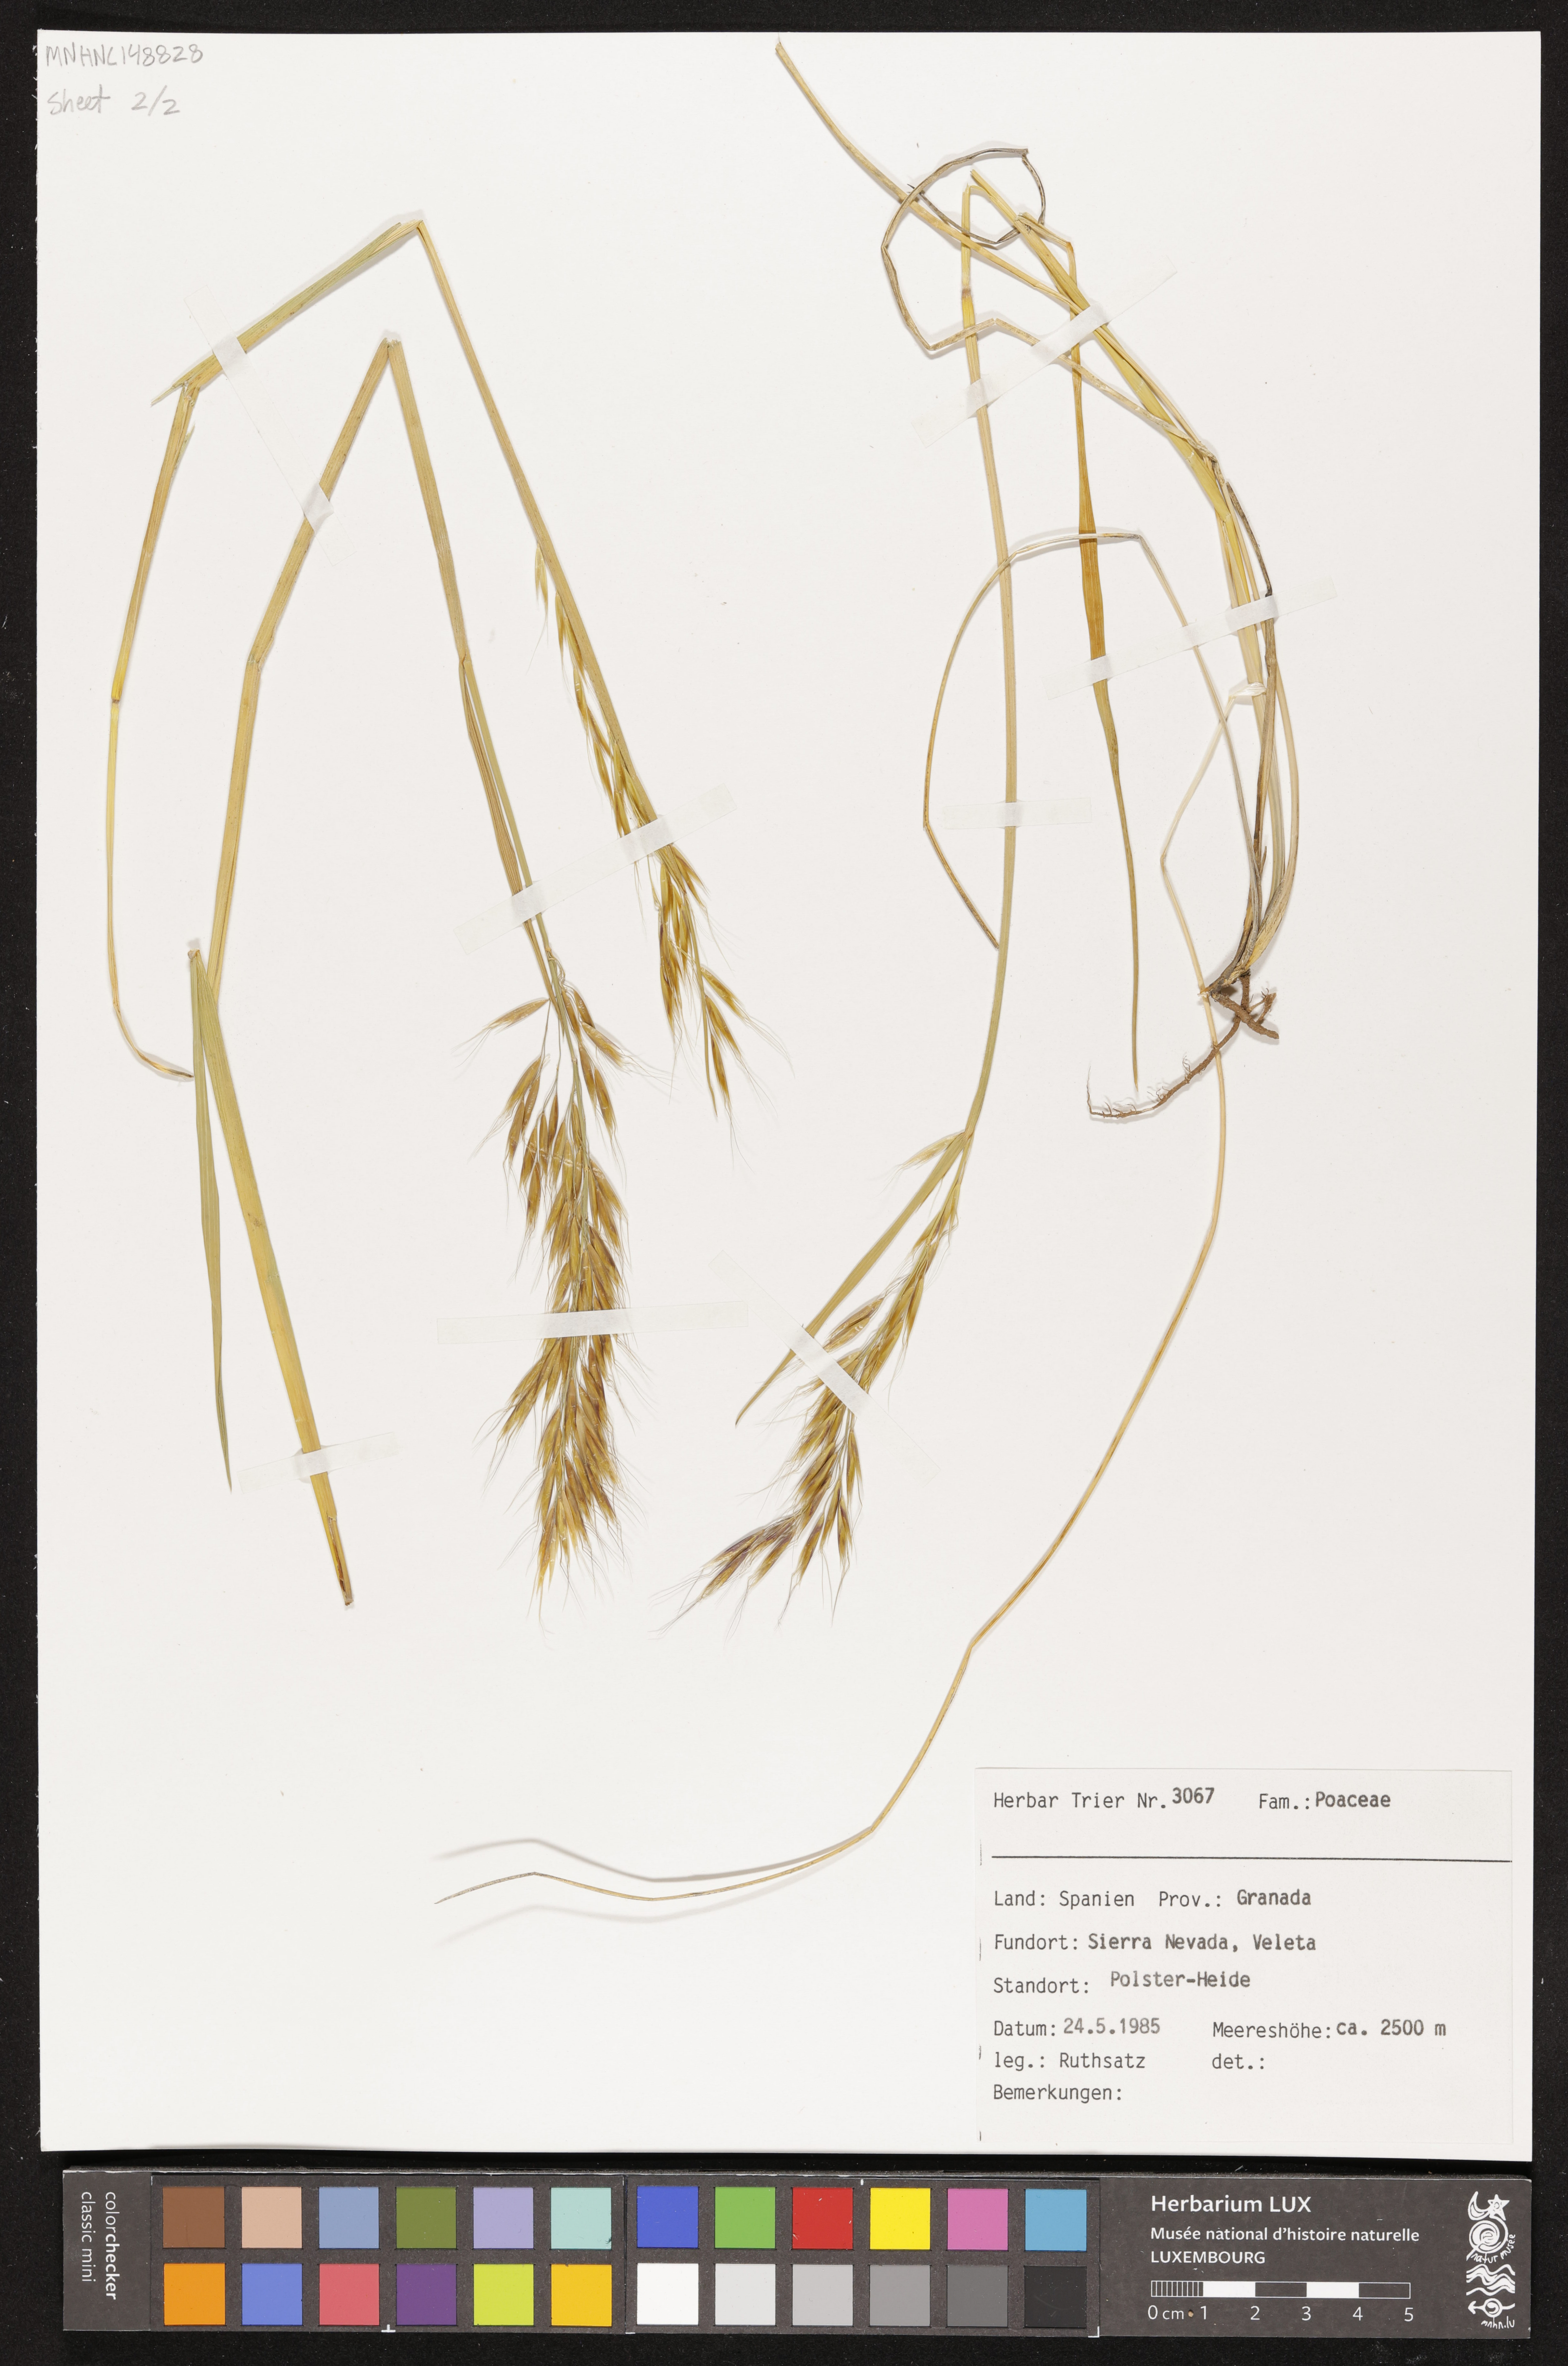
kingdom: Plantae
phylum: Tracheophyta
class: Liliopsida
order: Poales
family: Poaceae
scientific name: Poaceae
